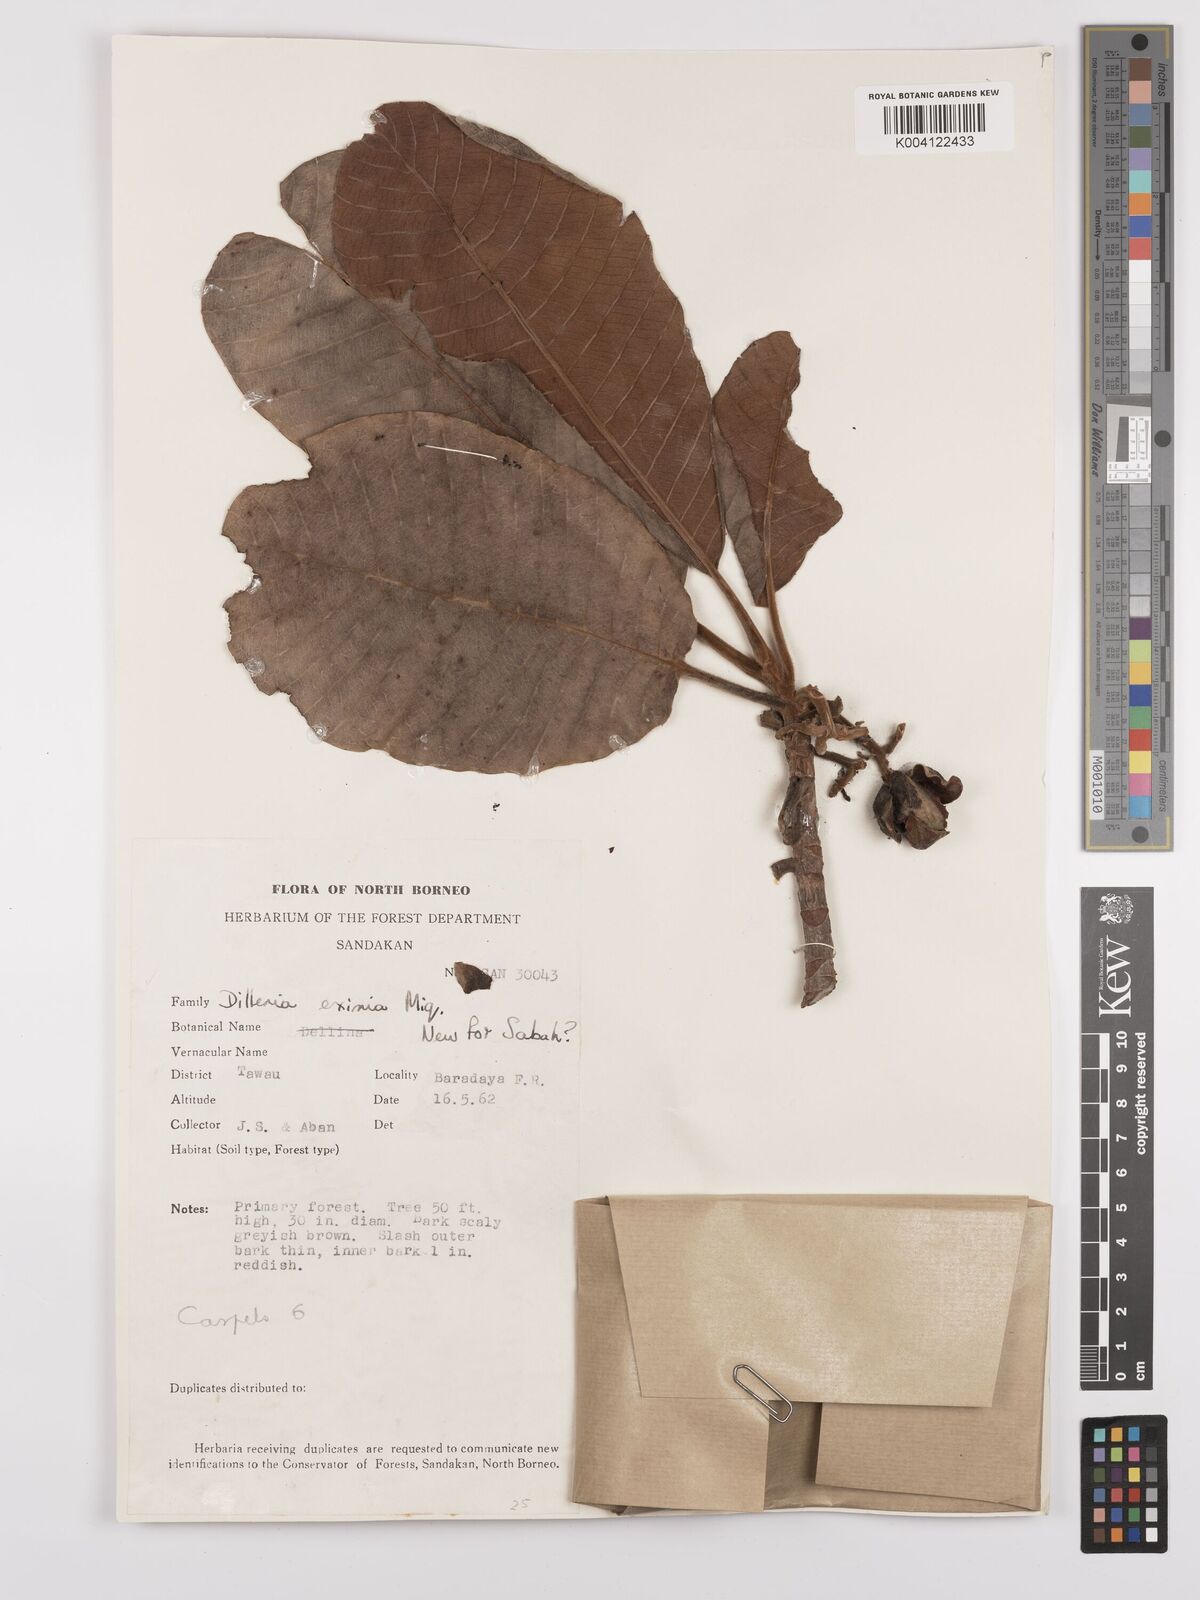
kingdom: Plantae
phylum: Tracheophyta
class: Magnoliopsida
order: Dilleniales
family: Dilleniaceae
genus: Dillenia
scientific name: Dillenia grandifolia
